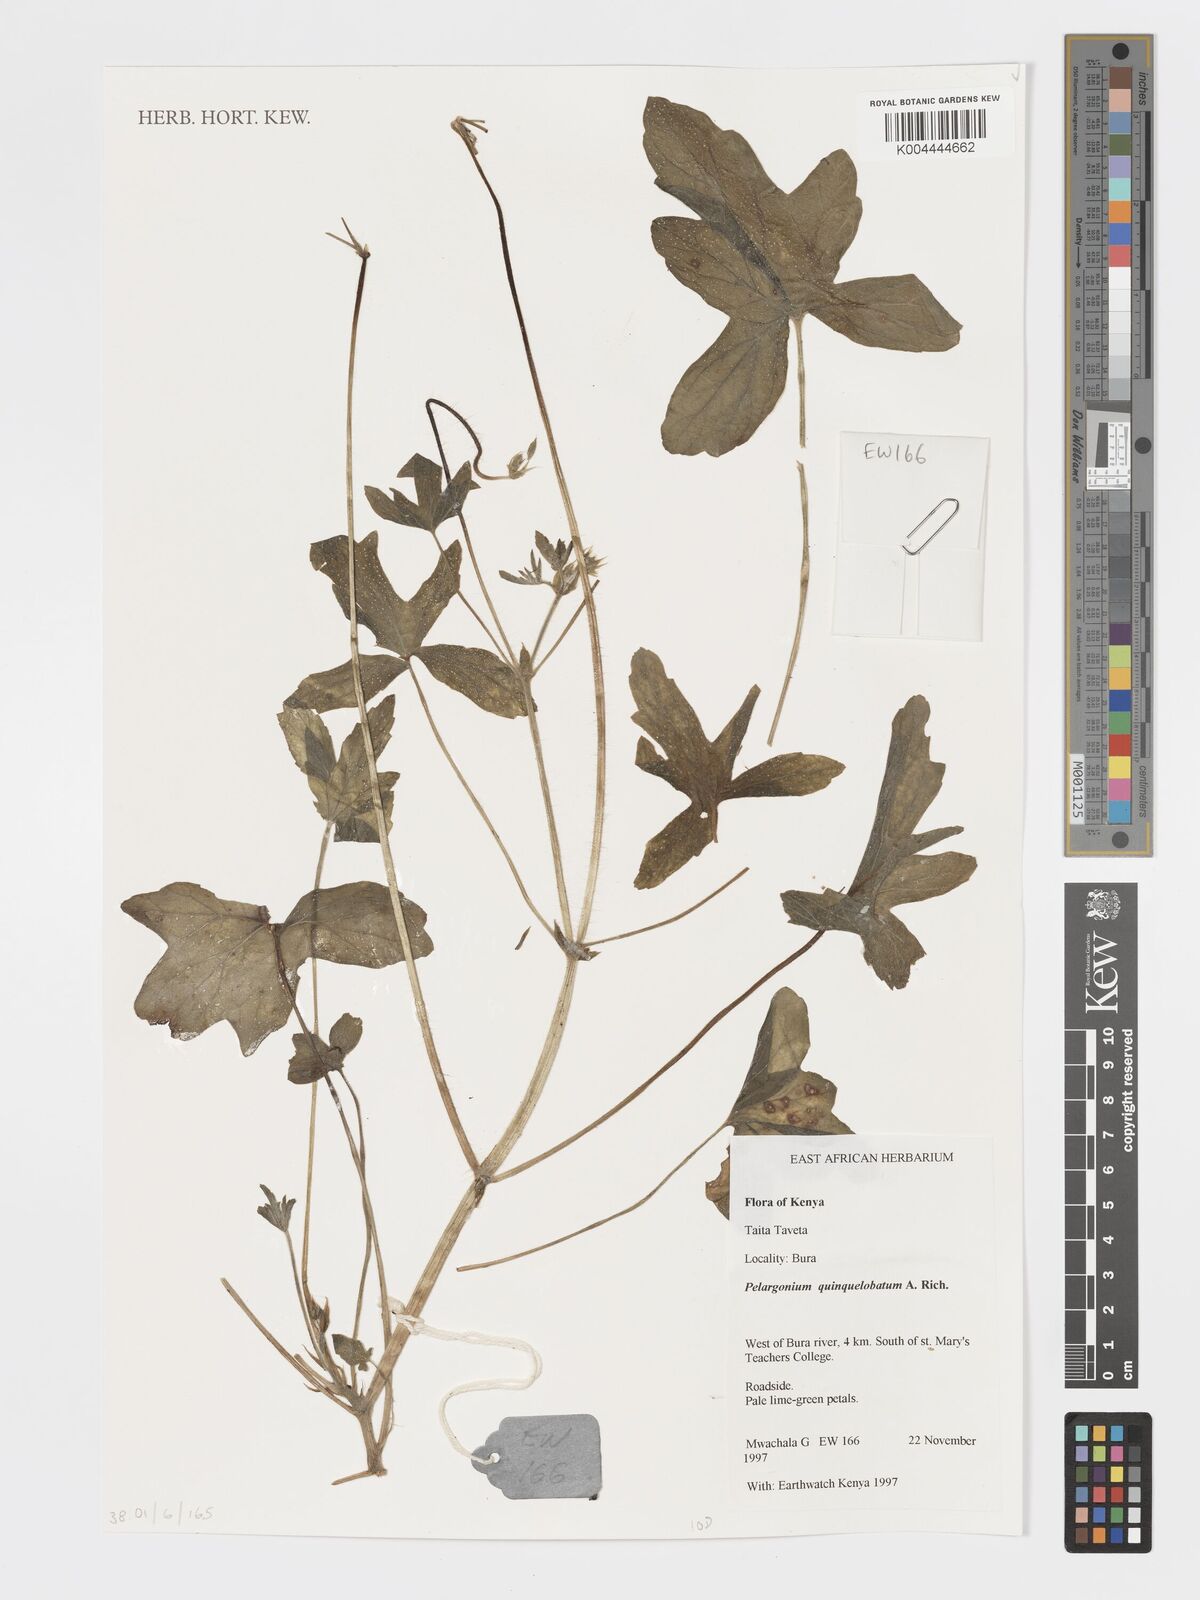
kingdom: Plantae
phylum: Tracheophyta
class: Magnoliopsida
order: Geraniales
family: Geraniaceae
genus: Pelargonium
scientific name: Pelargonium quinquelobatum
